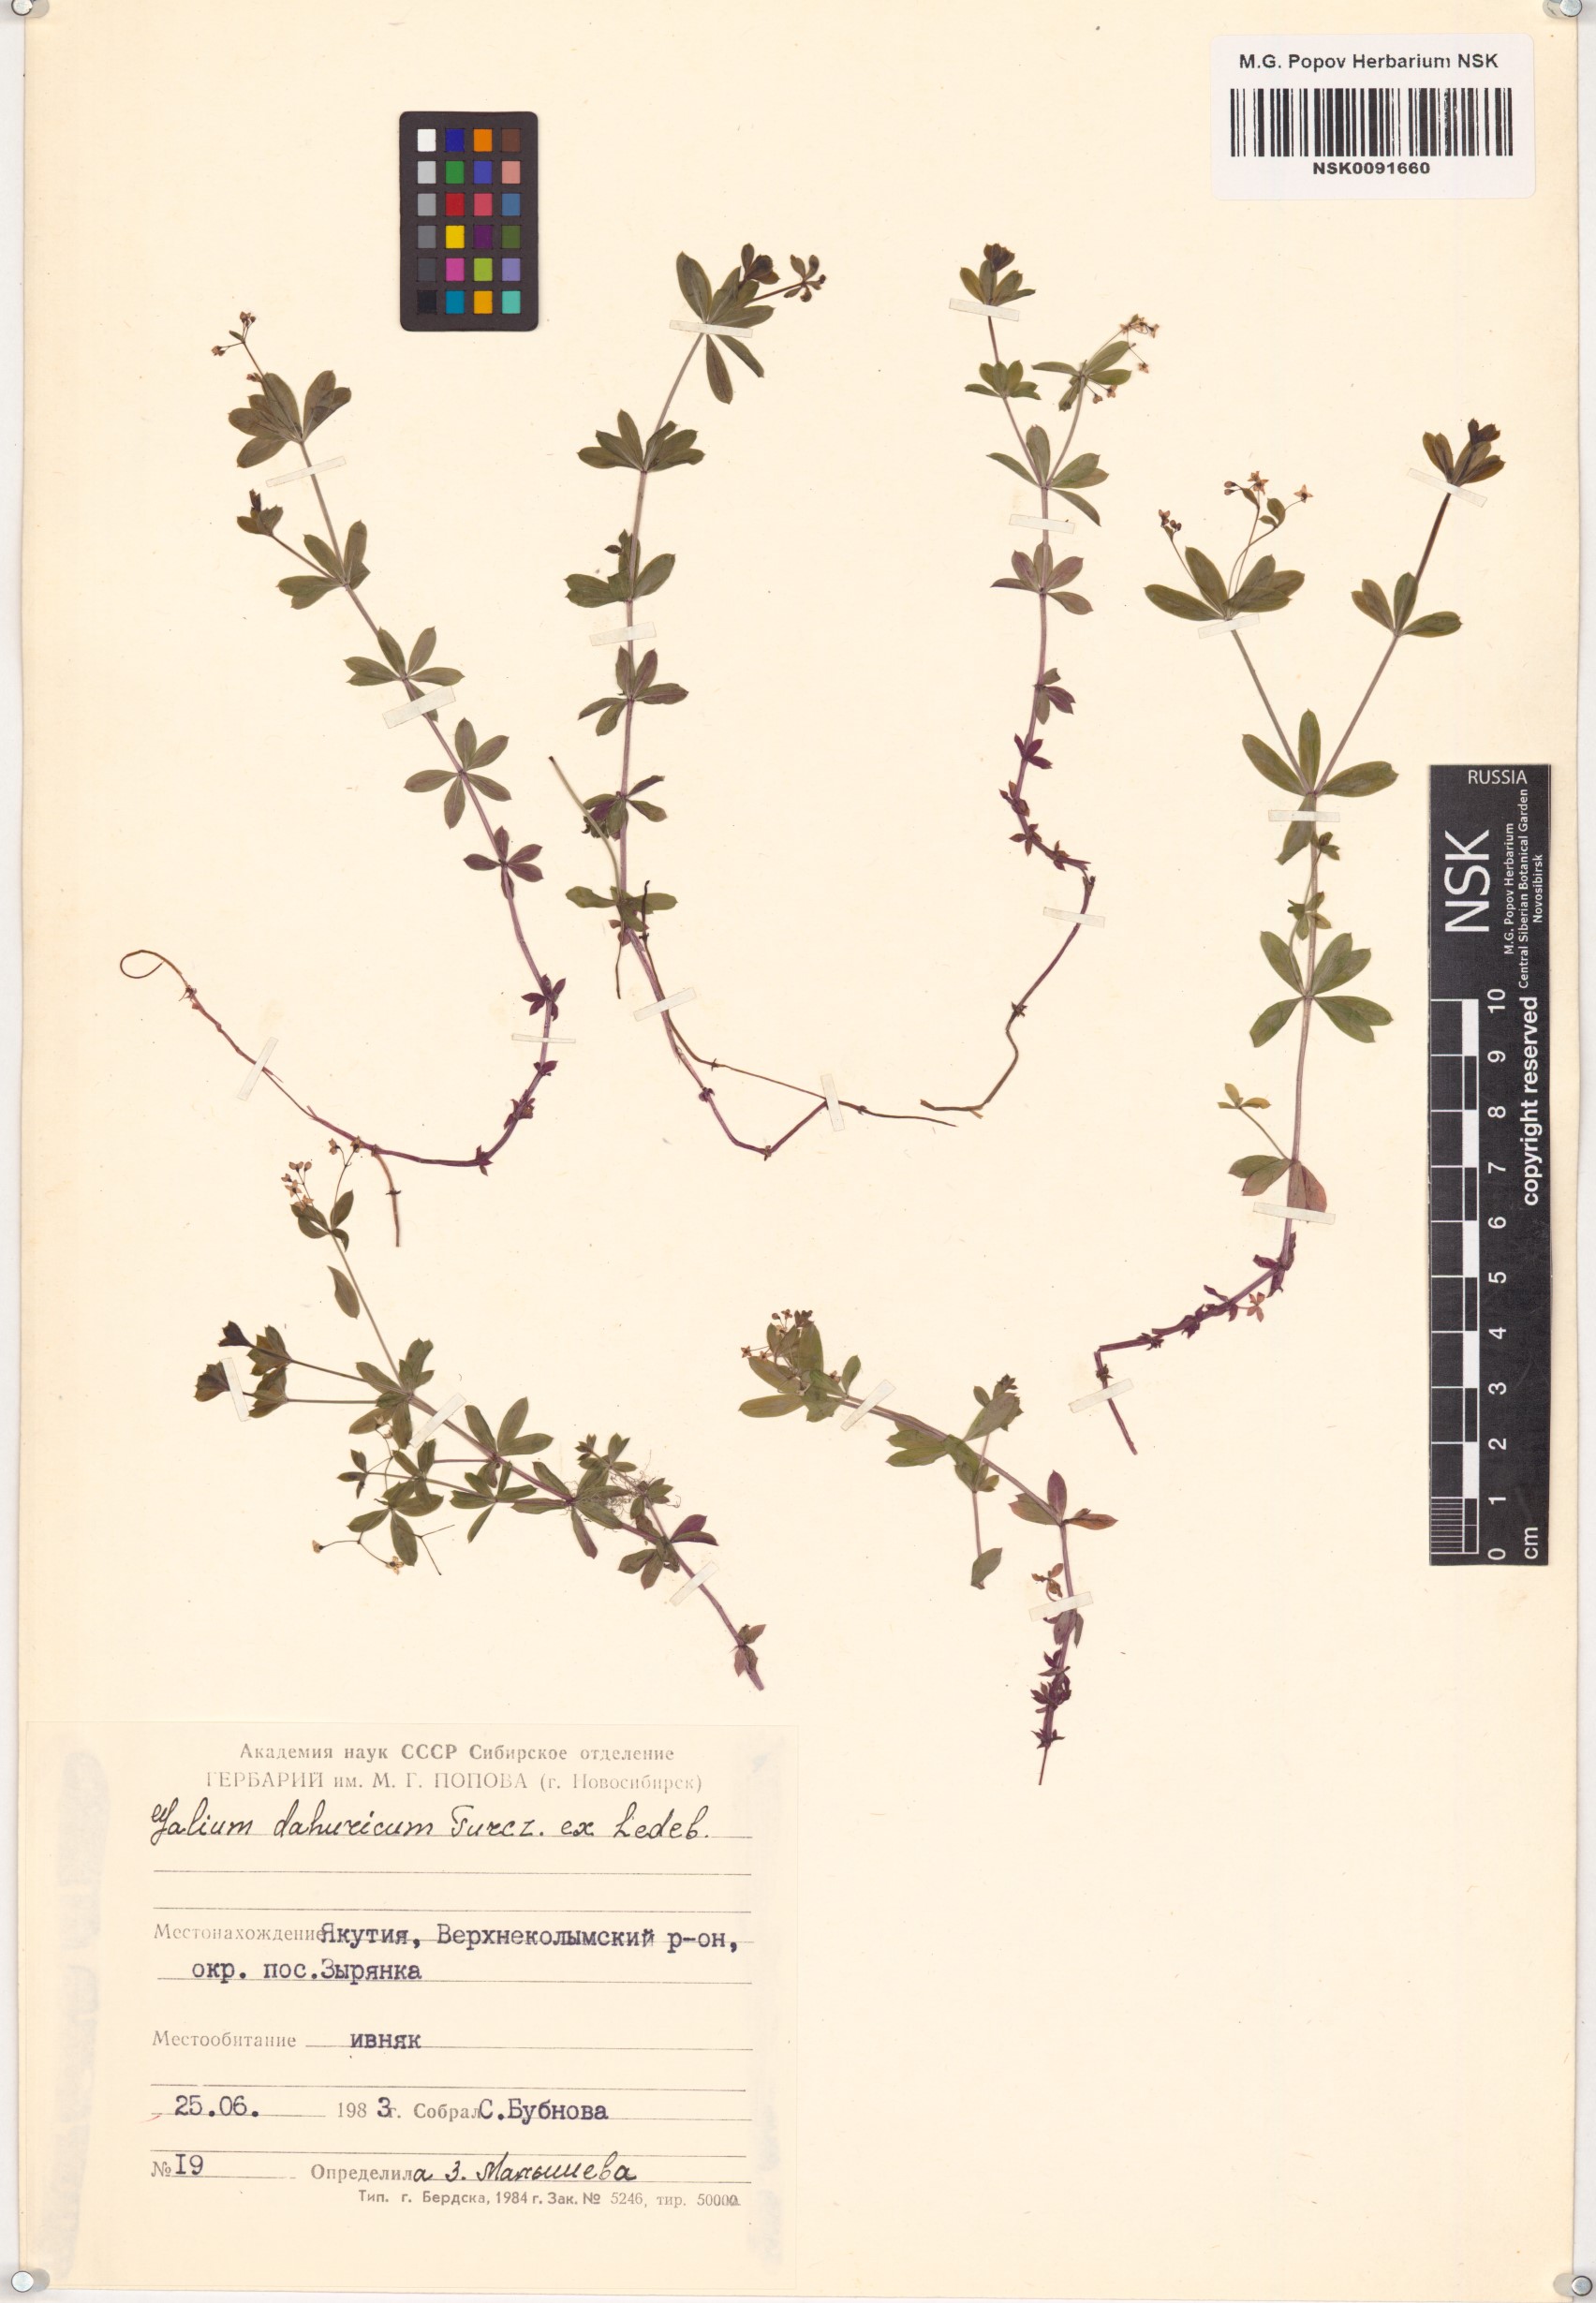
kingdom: Plantae
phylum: Tracheophyta
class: Magnoliopsida
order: Gentianales
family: Rubiaceae
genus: Galium
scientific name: Galium dahuricum
